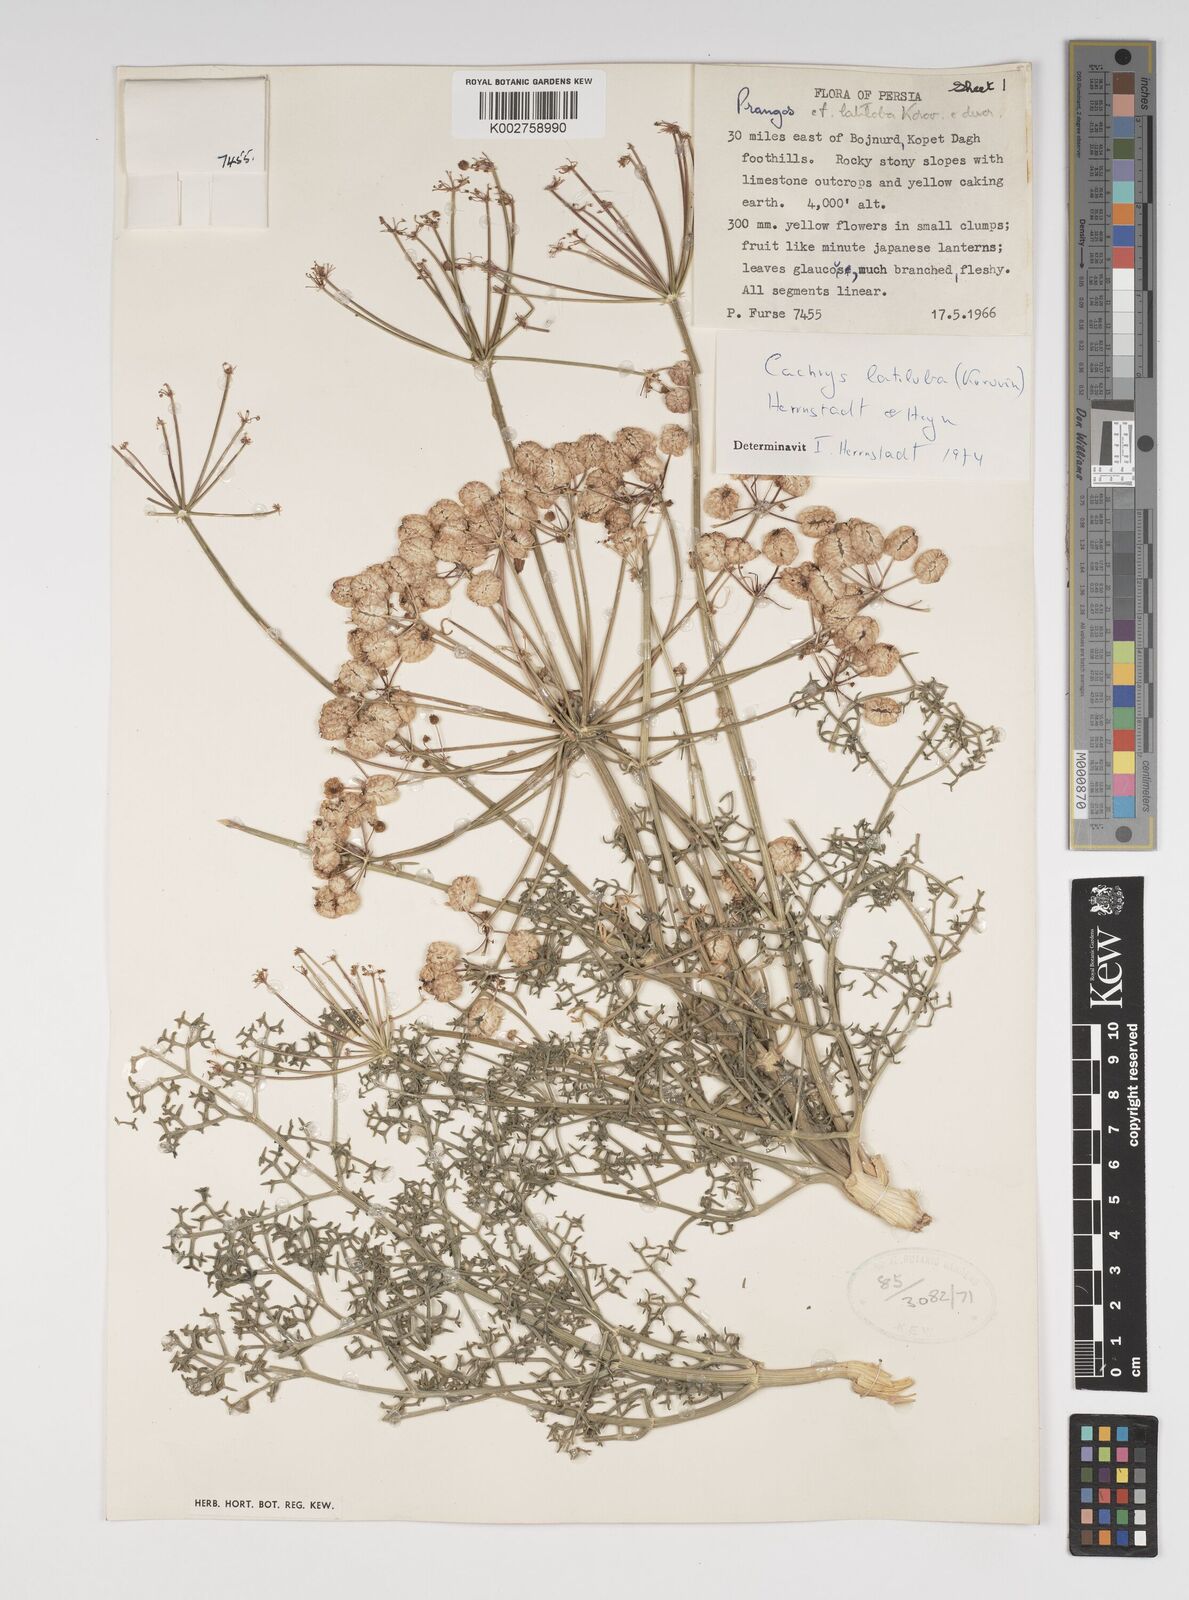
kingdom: Plantae
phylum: Tracheophyta
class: Magnoliopsida
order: Apiales
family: Apiaceae
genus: Prangos
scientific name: Prangos latiloba
